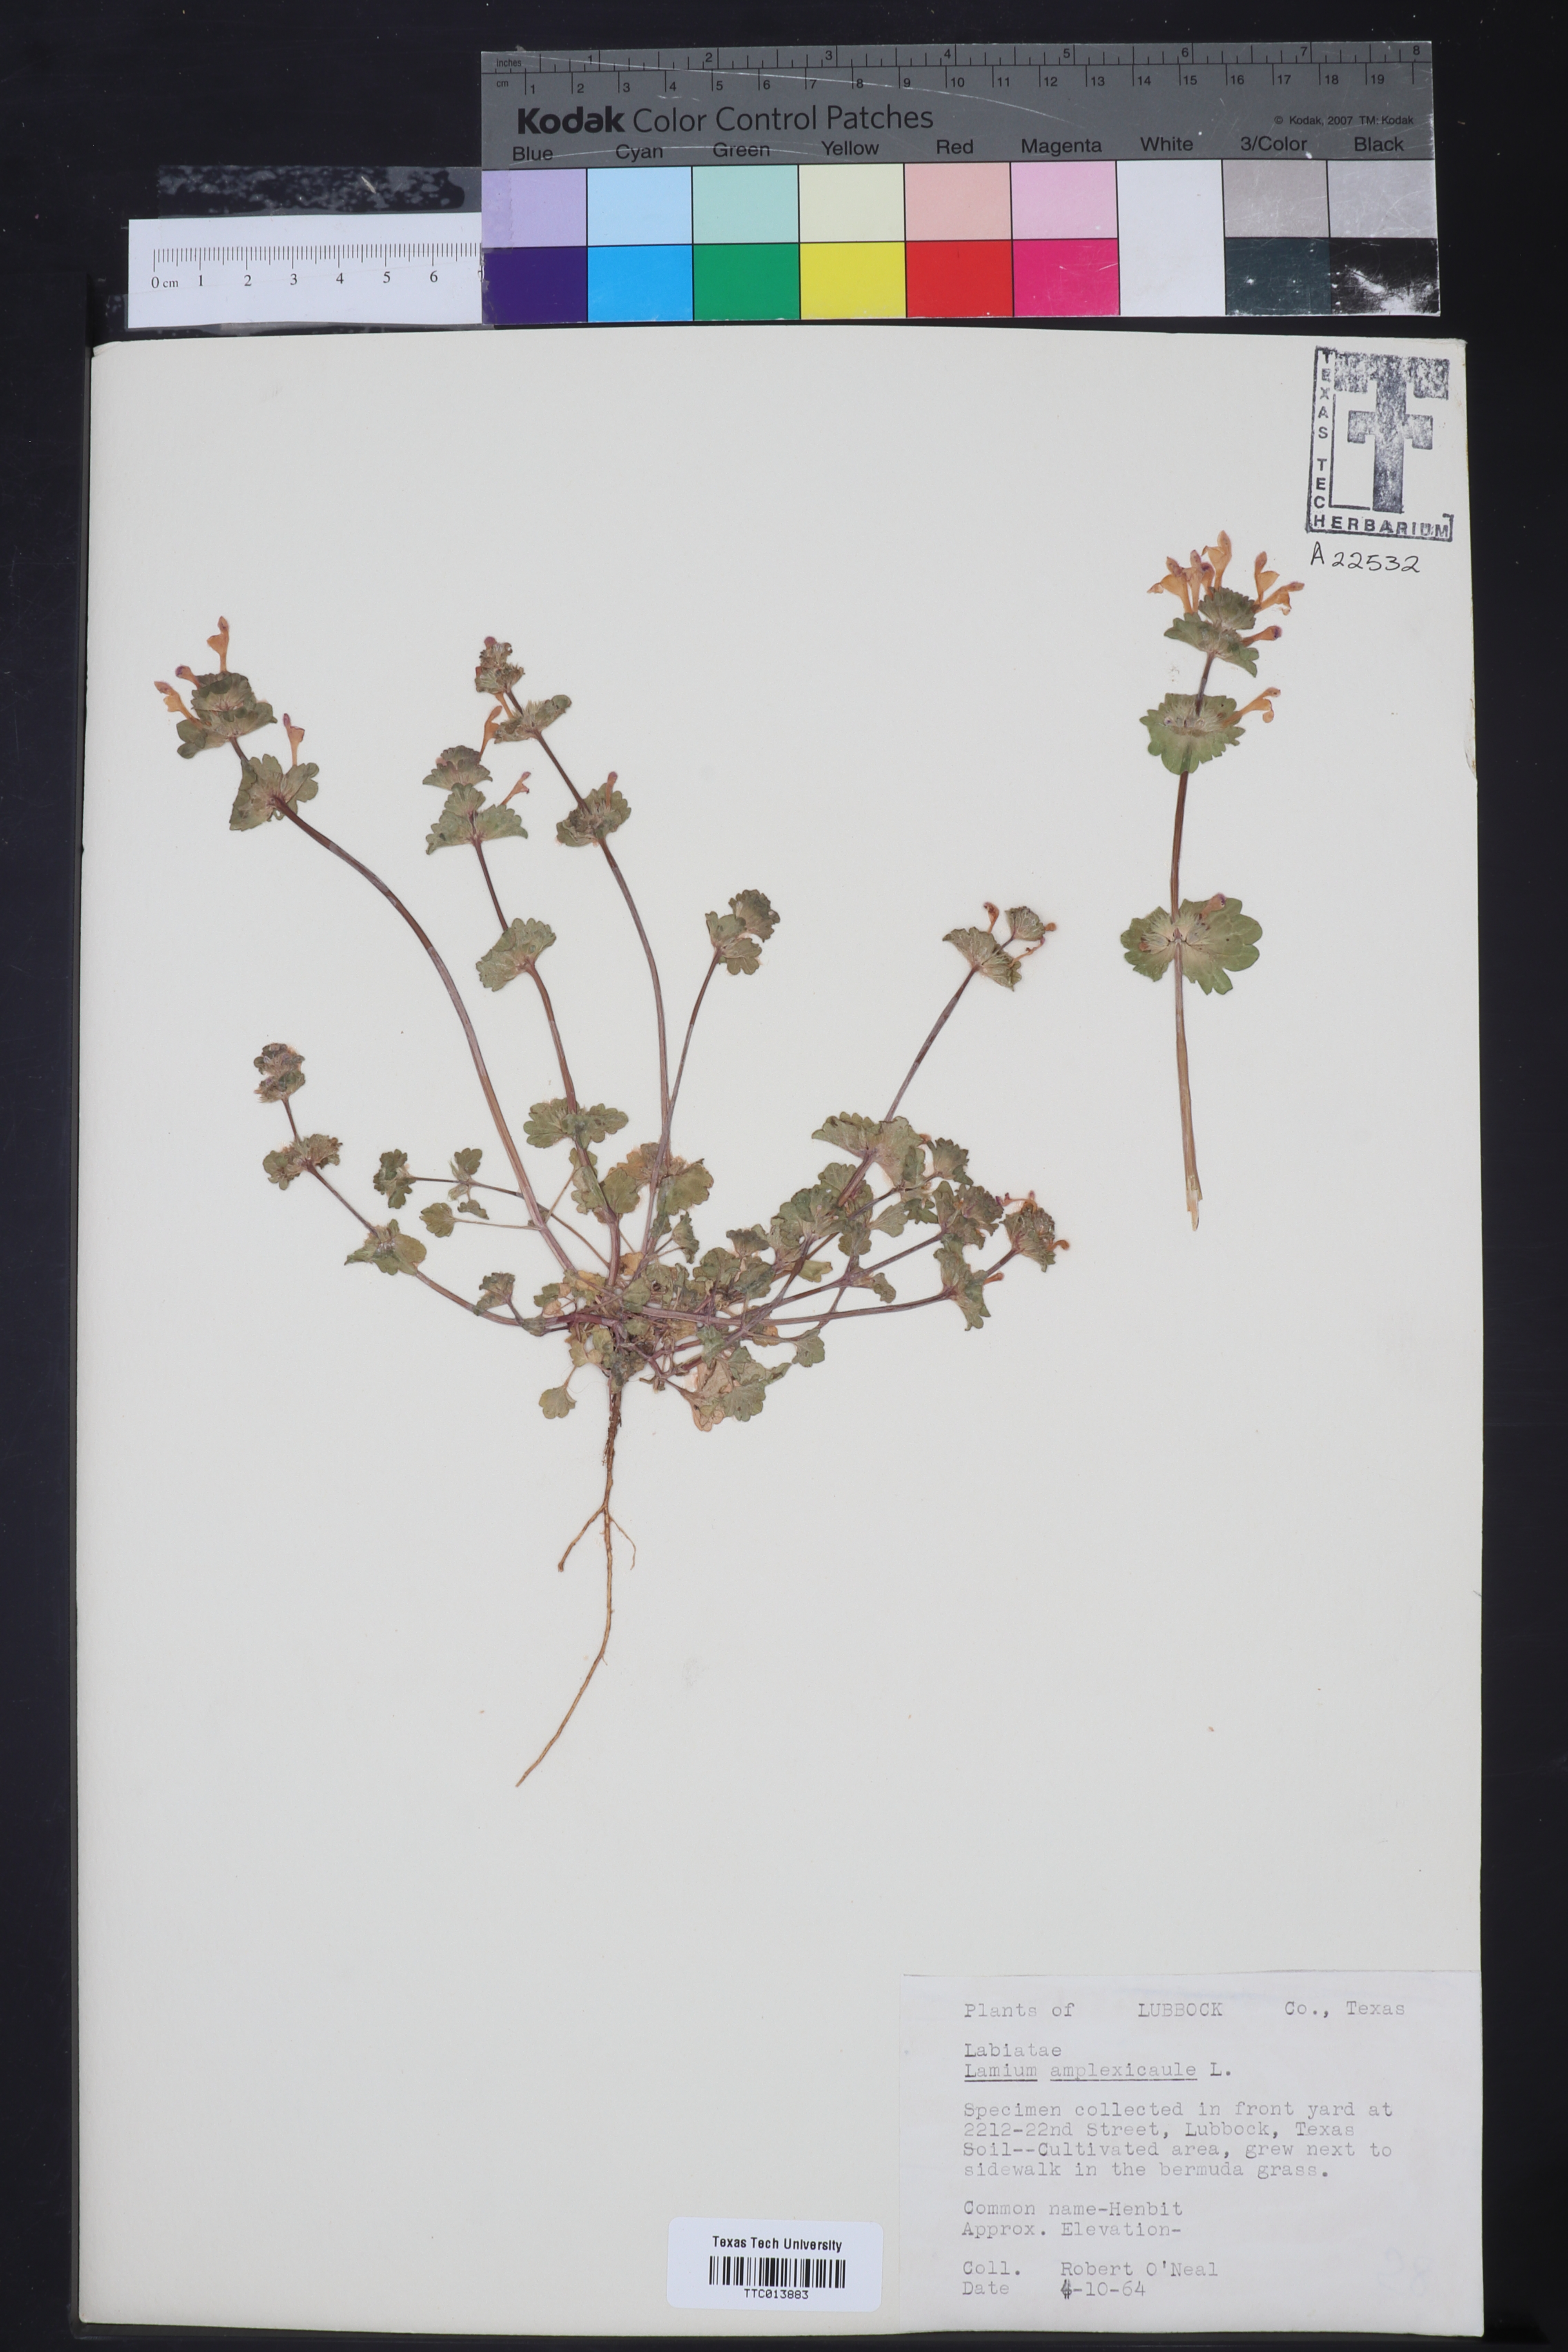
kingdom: Plantae
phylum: Tracheophyta
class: Magnoliopsida
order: Lamiales
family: Lamiaceae
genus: Lamium
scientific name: Lamium amplexicaule
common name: Henbit dead-nettle
